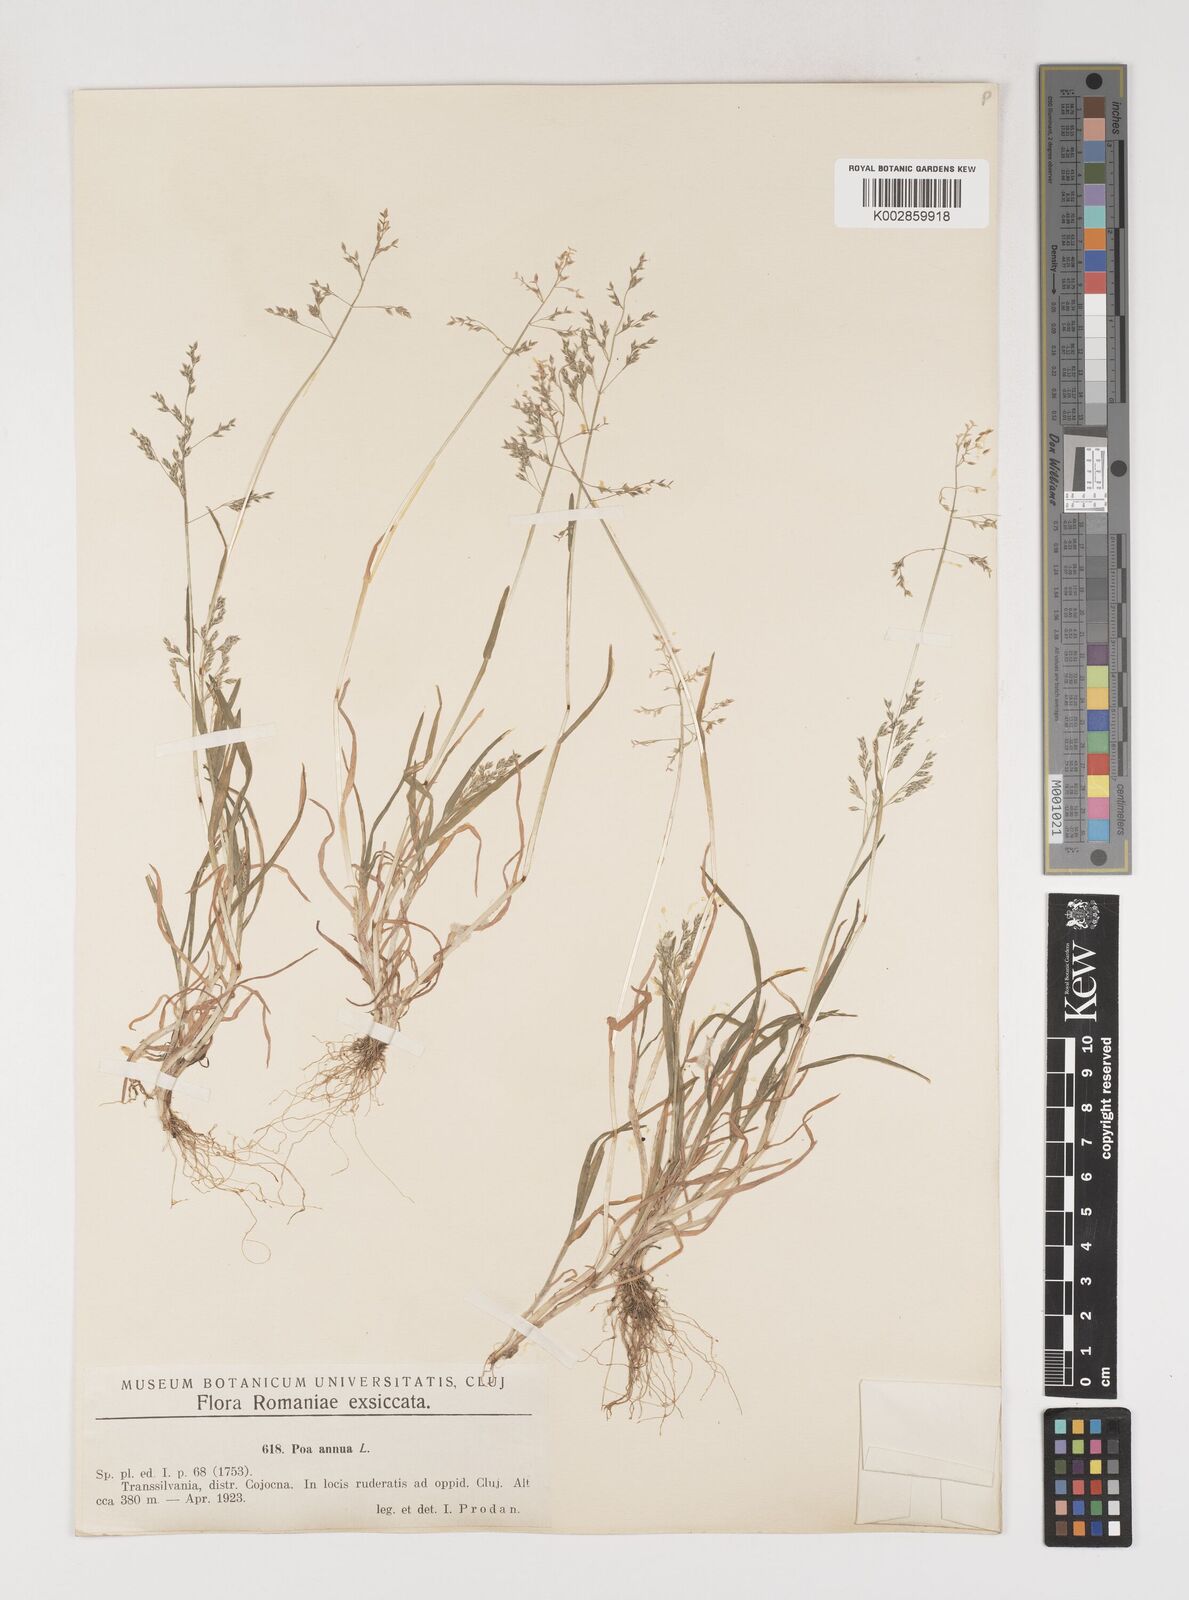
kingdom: Plantae
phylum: Tracheophyta
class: Liliopsida
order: Poales
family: Poaceae
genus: Poa
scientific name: Poa annua
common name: Annual bluegrass
